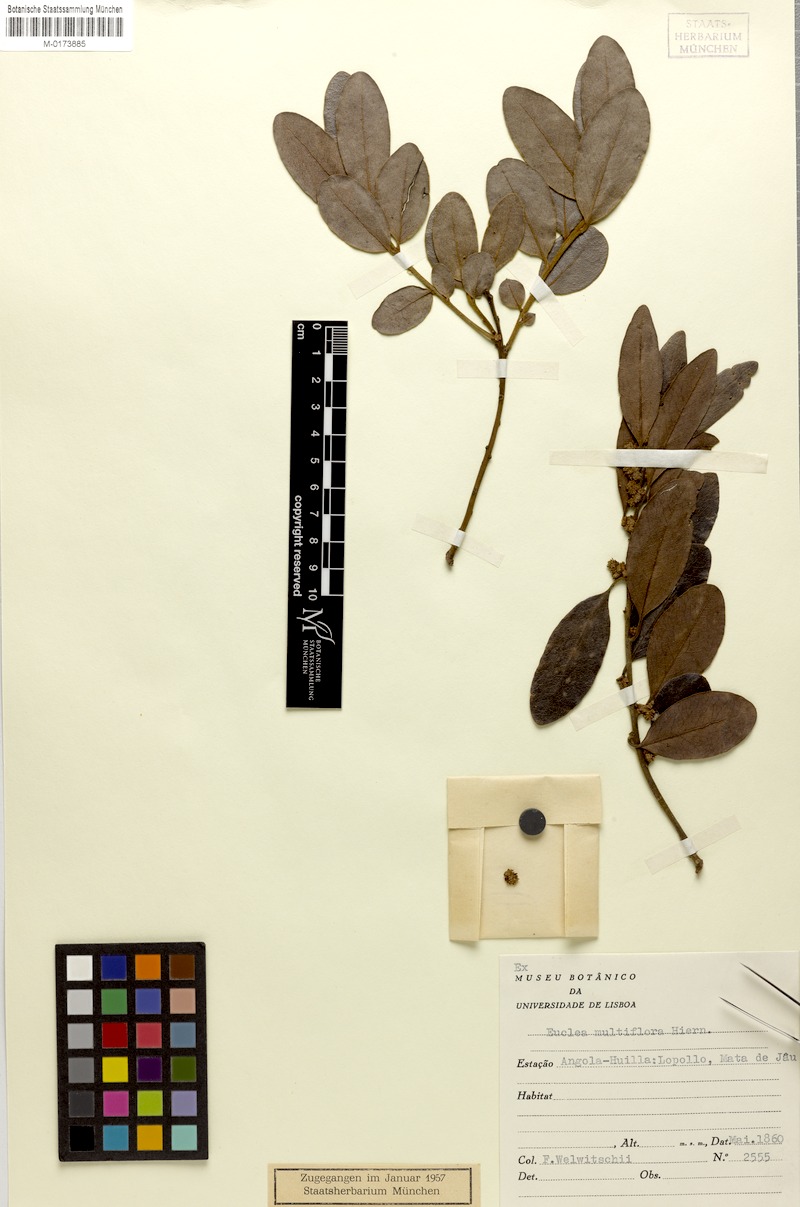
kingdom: Plantae
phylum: Tracheophyta
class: Magnoliopsida
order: Ericales
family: Ebenaceae
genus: Euclea
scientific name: Euclea natalensis
